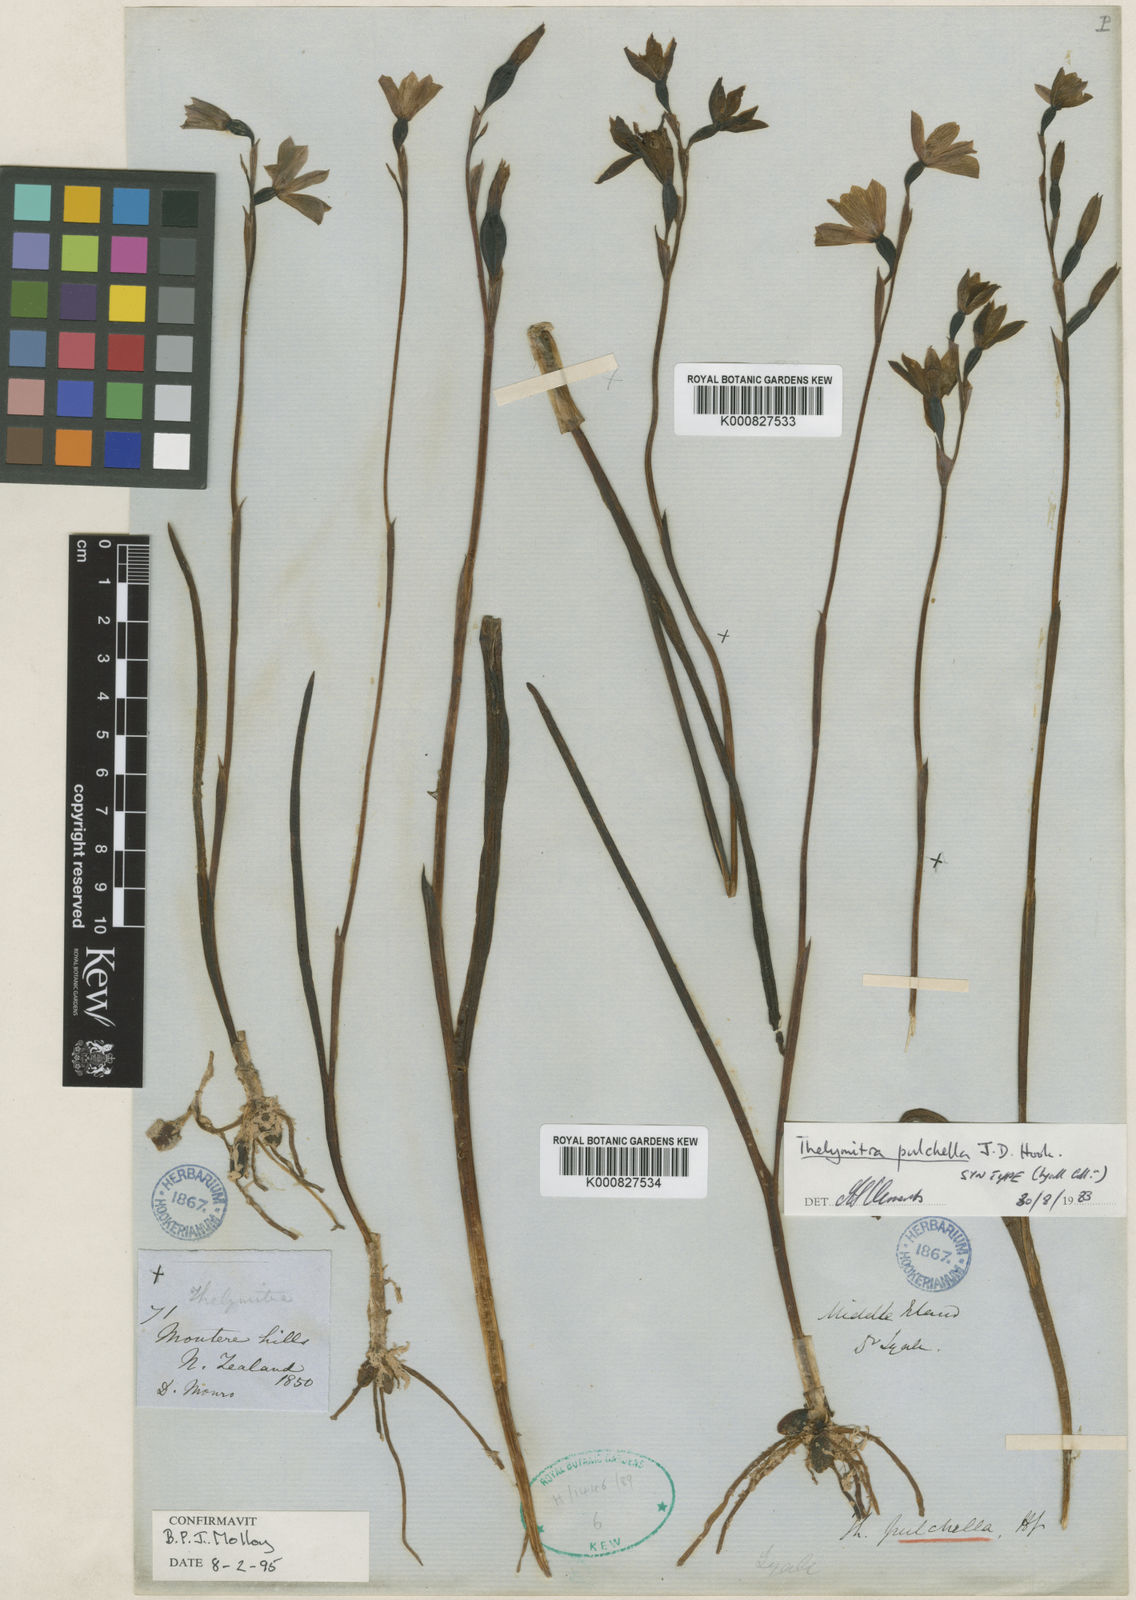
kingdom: Plantae
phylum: Tracheophyta
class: Liliopsida
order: Asparagales
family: Orchidaceae
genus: Thelymitra
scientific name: Thelymitra pulchella
